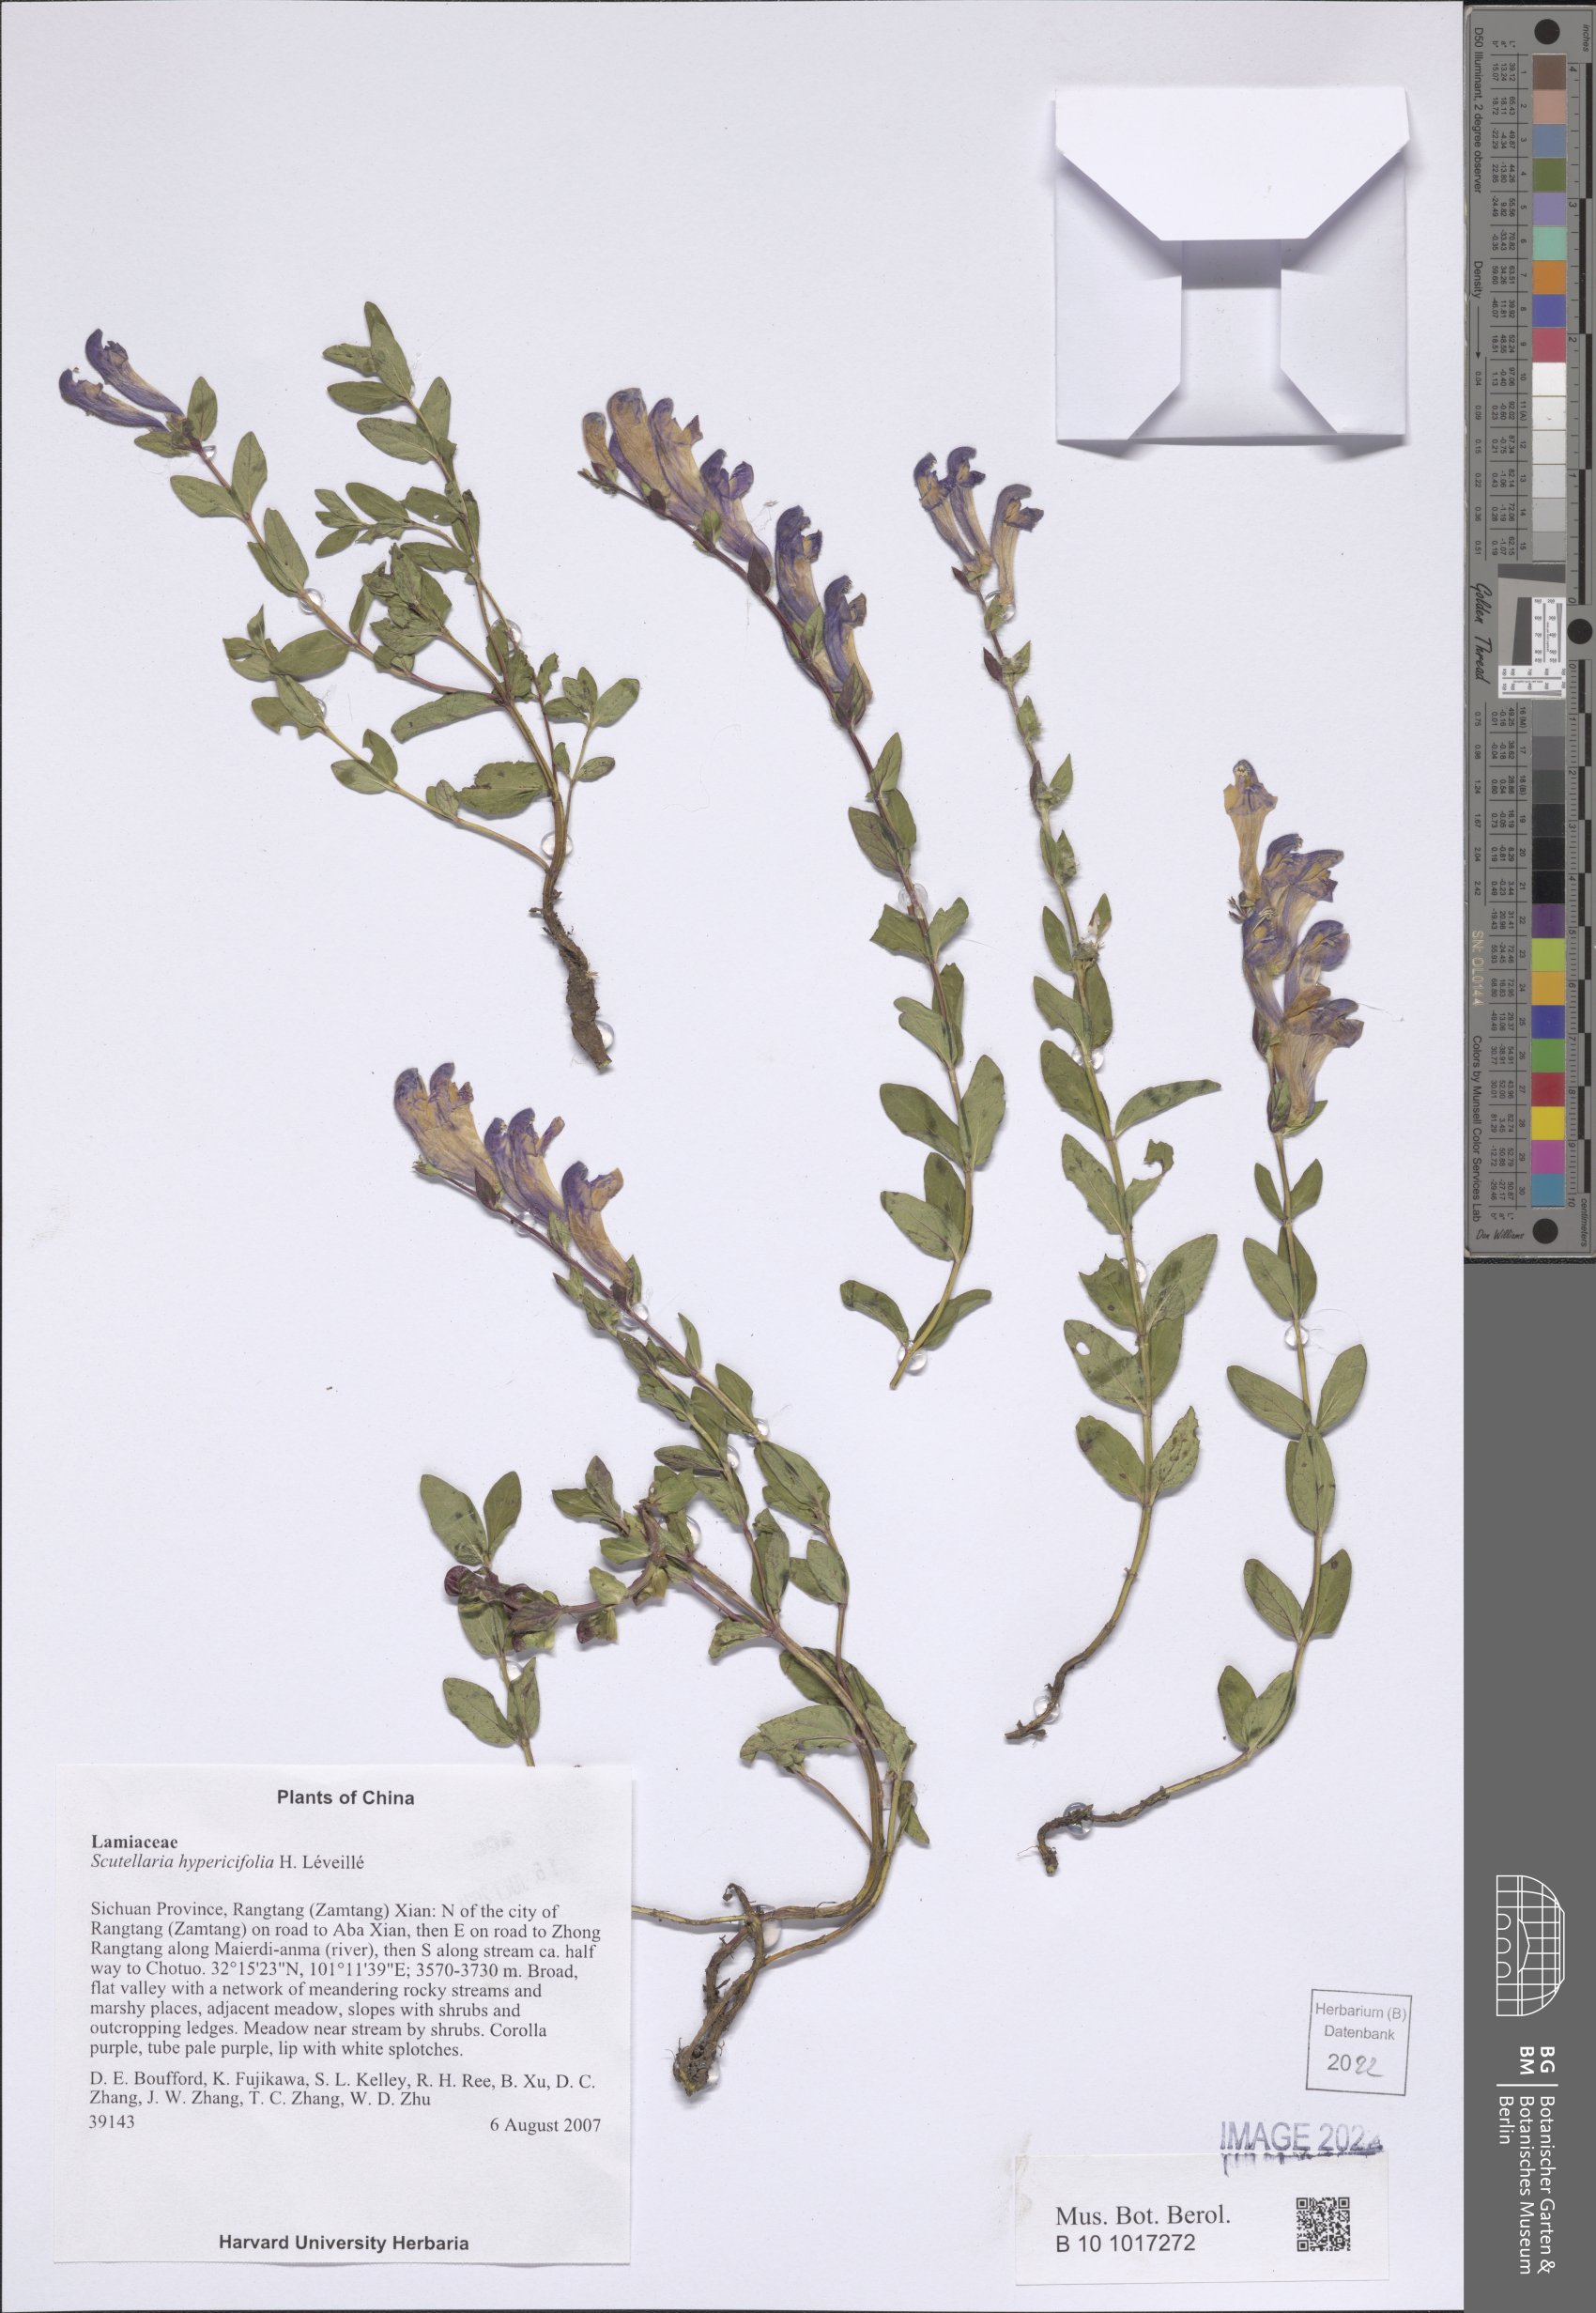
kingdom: Plantae
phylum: Tracheophyta
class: Magnoliopsida
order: Lamiales
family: Lamiaceae
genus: Scutellaria
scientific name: Scutellaria hypericifolia
